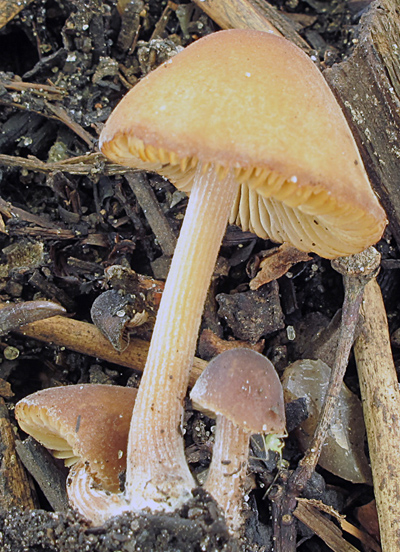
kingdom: Fungi
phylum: Basidiomycota
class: Agaricomycetes
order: Agaricales
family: Bolbitiaceae
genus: Conocybe
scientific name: Conocybe anthracophila
